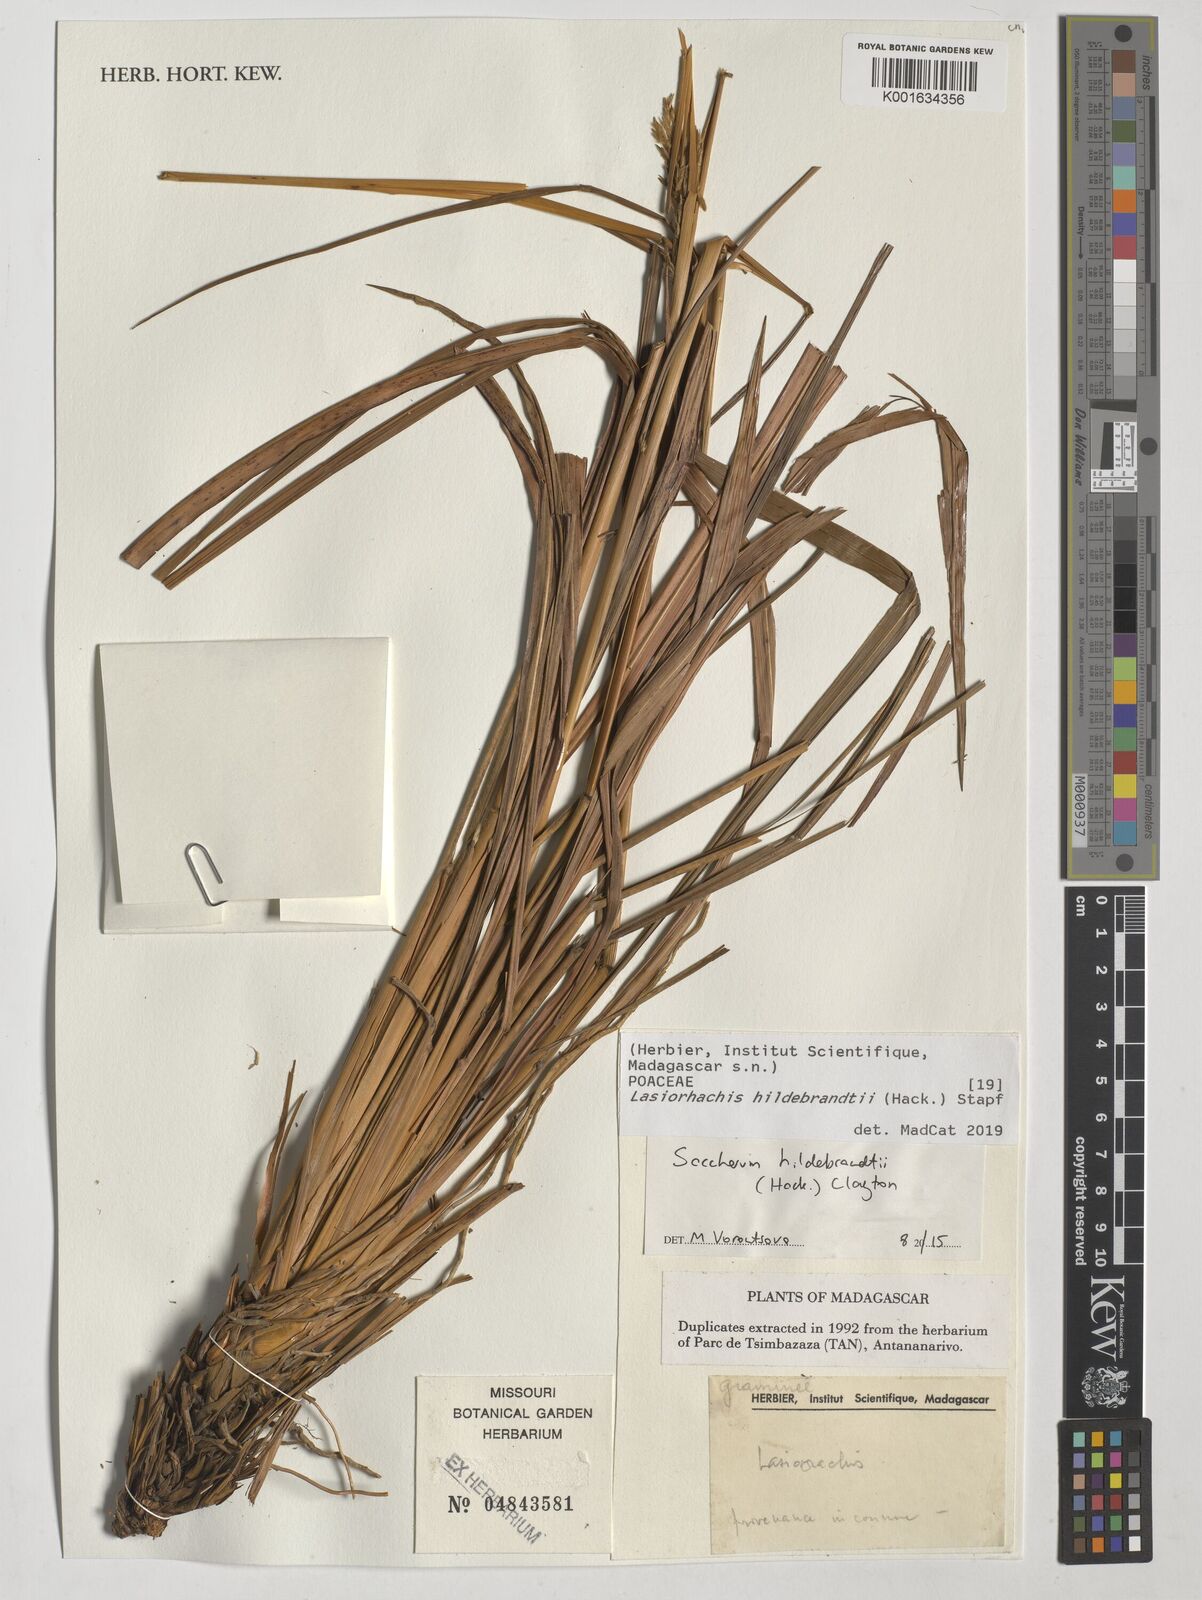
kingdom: Plantae
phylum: Tracheophyta
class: Liliopsida
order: Poales
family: Poaceae
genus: Lasiorhachis
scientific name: Lasiorhachis hildebrandtii
